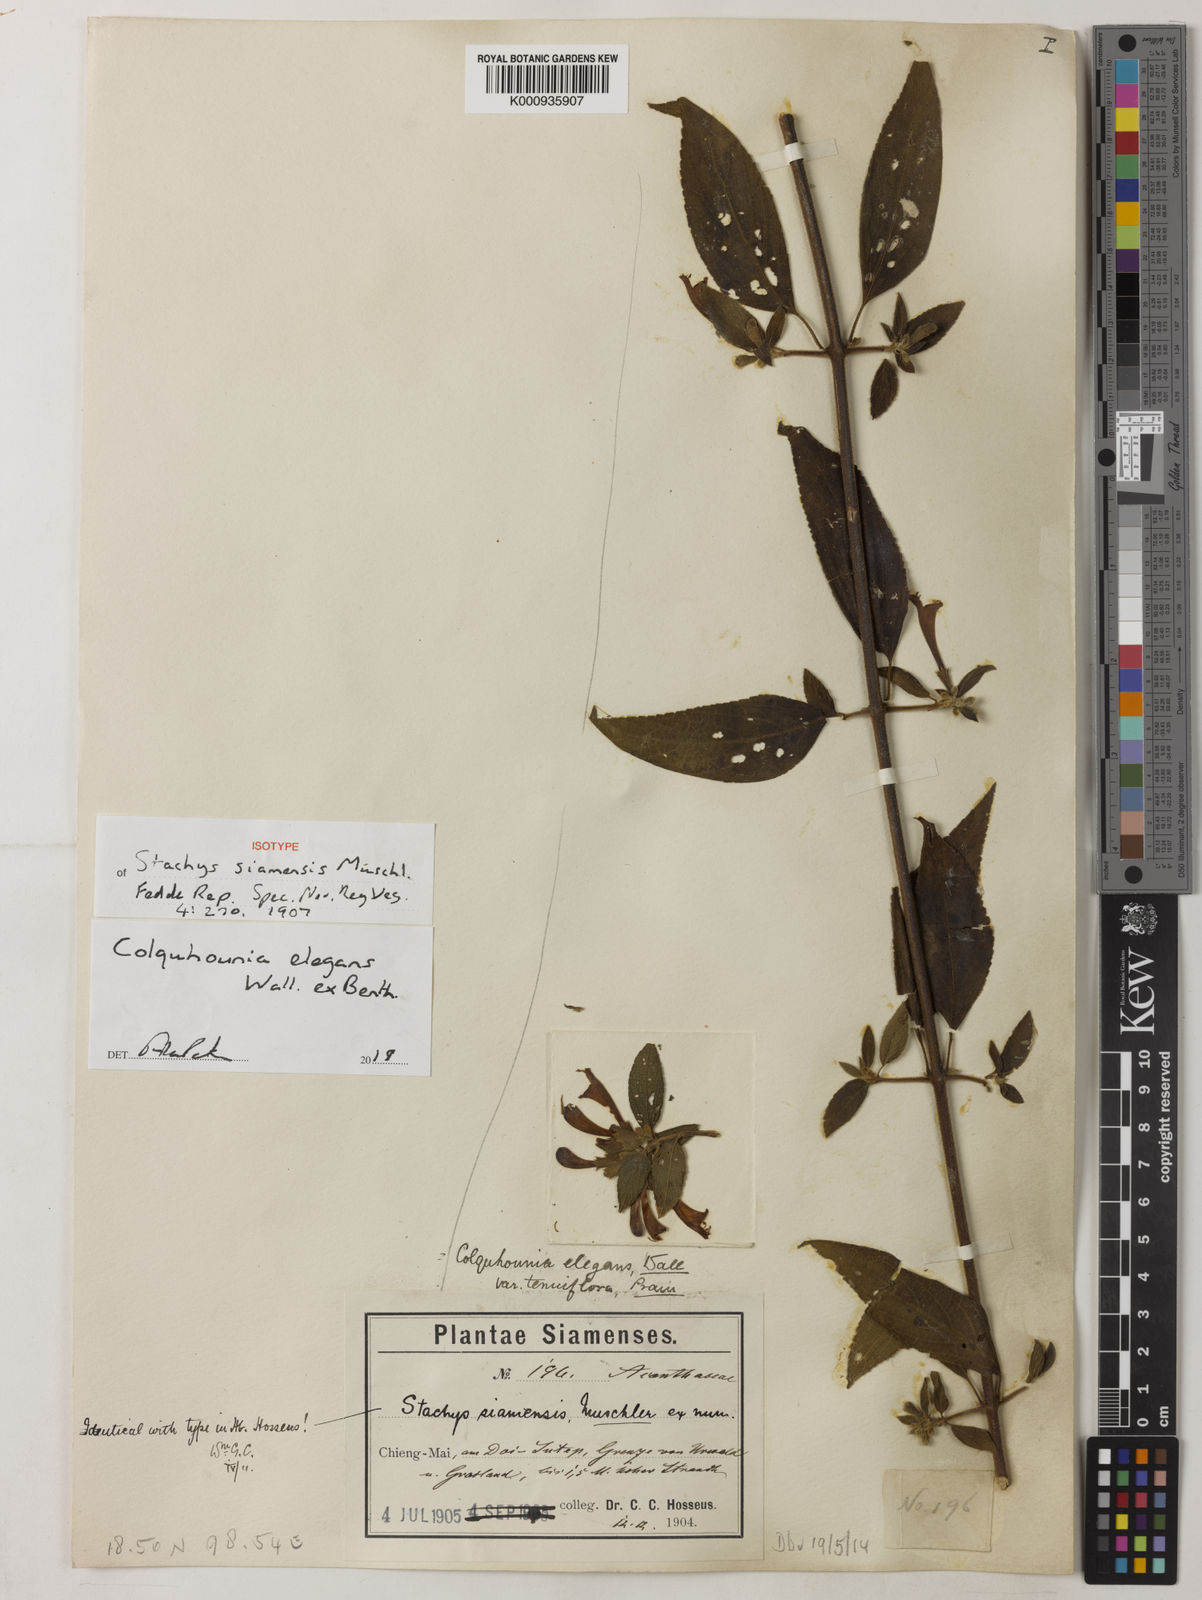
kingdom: Plantae
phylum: Tracheophyta
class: Magnoliopsida
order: Lamiales
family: Lamiaceae
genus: Colquhounia
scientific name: Colquhounia elegans
